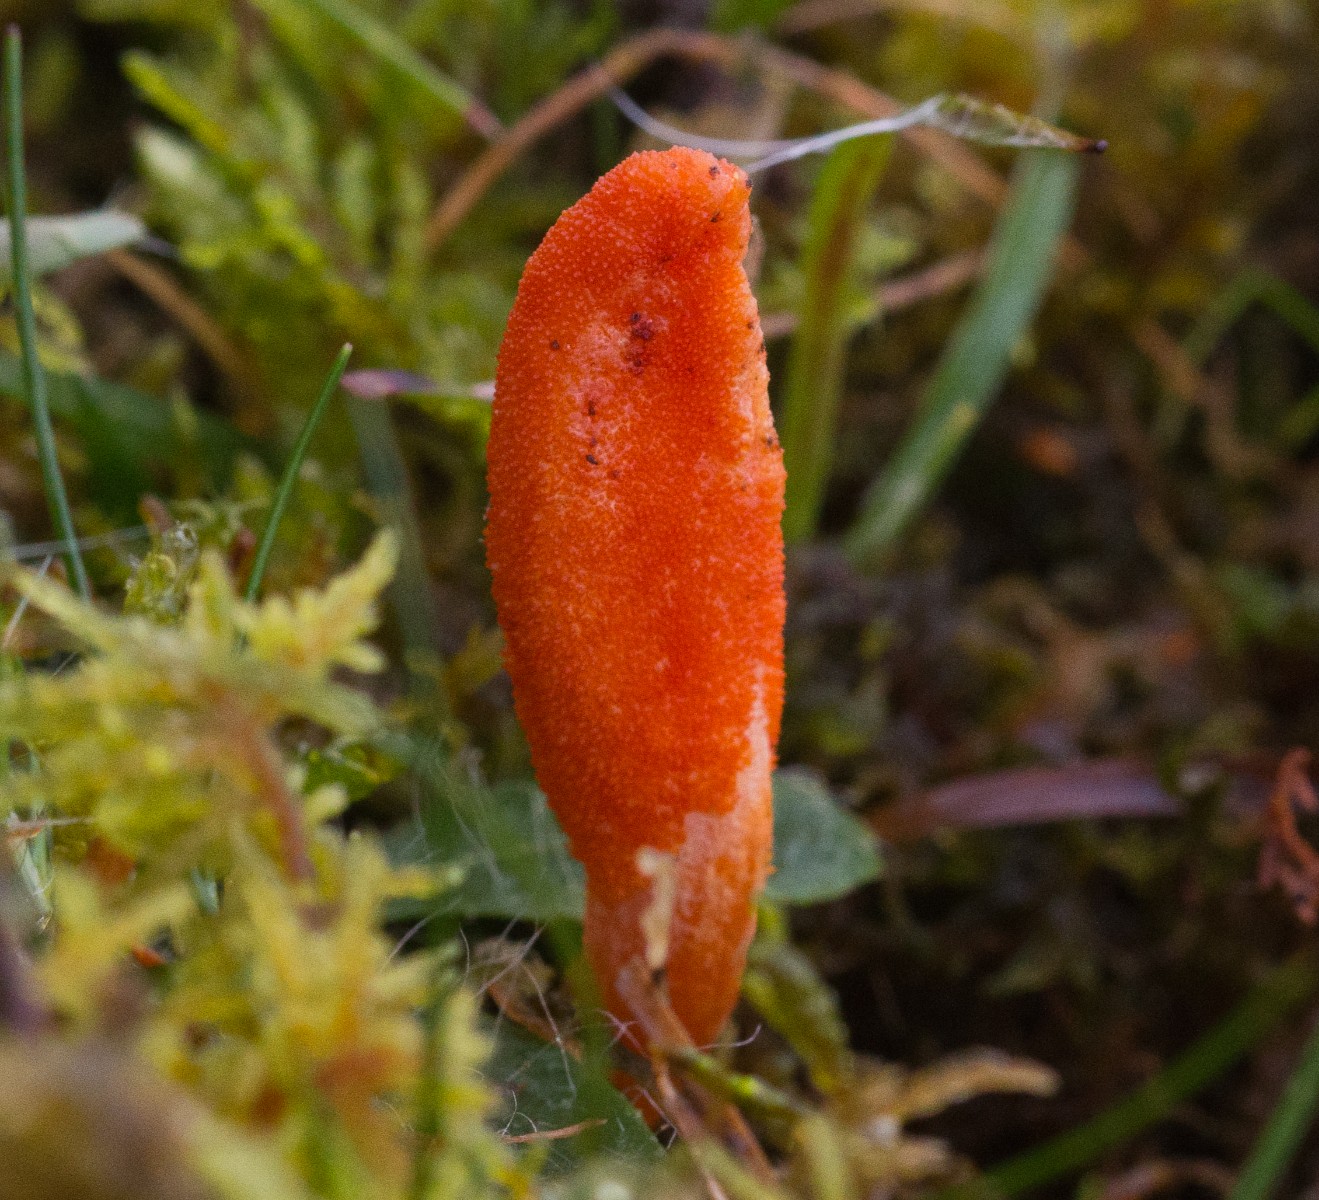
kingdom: Fungi
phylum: Ascomycota
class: Sordariomycetes
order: Hypocreales
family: Cordycipitaceae
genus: Cordyceps
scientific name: Cordyceps militaris
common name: puppe-snyltekølle
